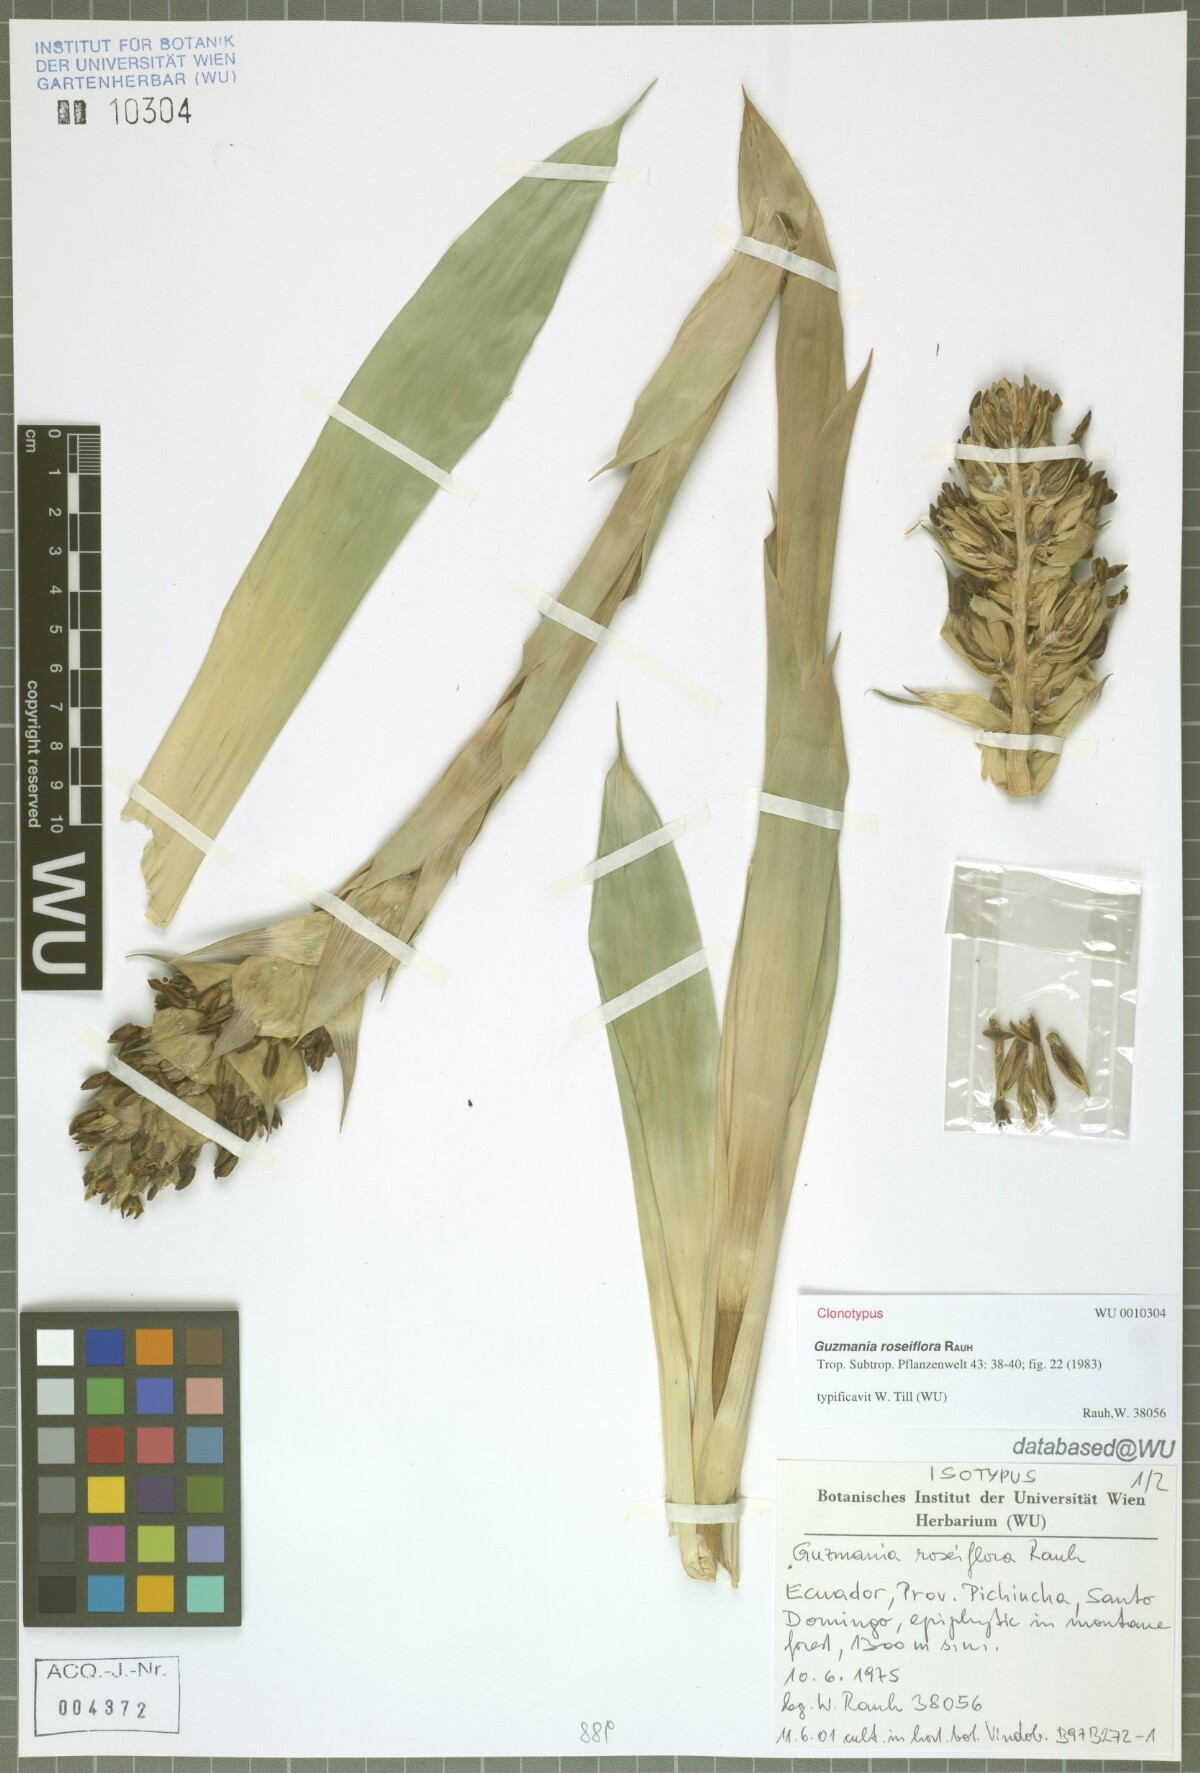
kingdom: Plantae
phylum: Tracheophyta
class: Liliopsida
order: Poales
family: Bromeliaceae
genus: Guzmania
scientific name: Guzmania roseiflora
